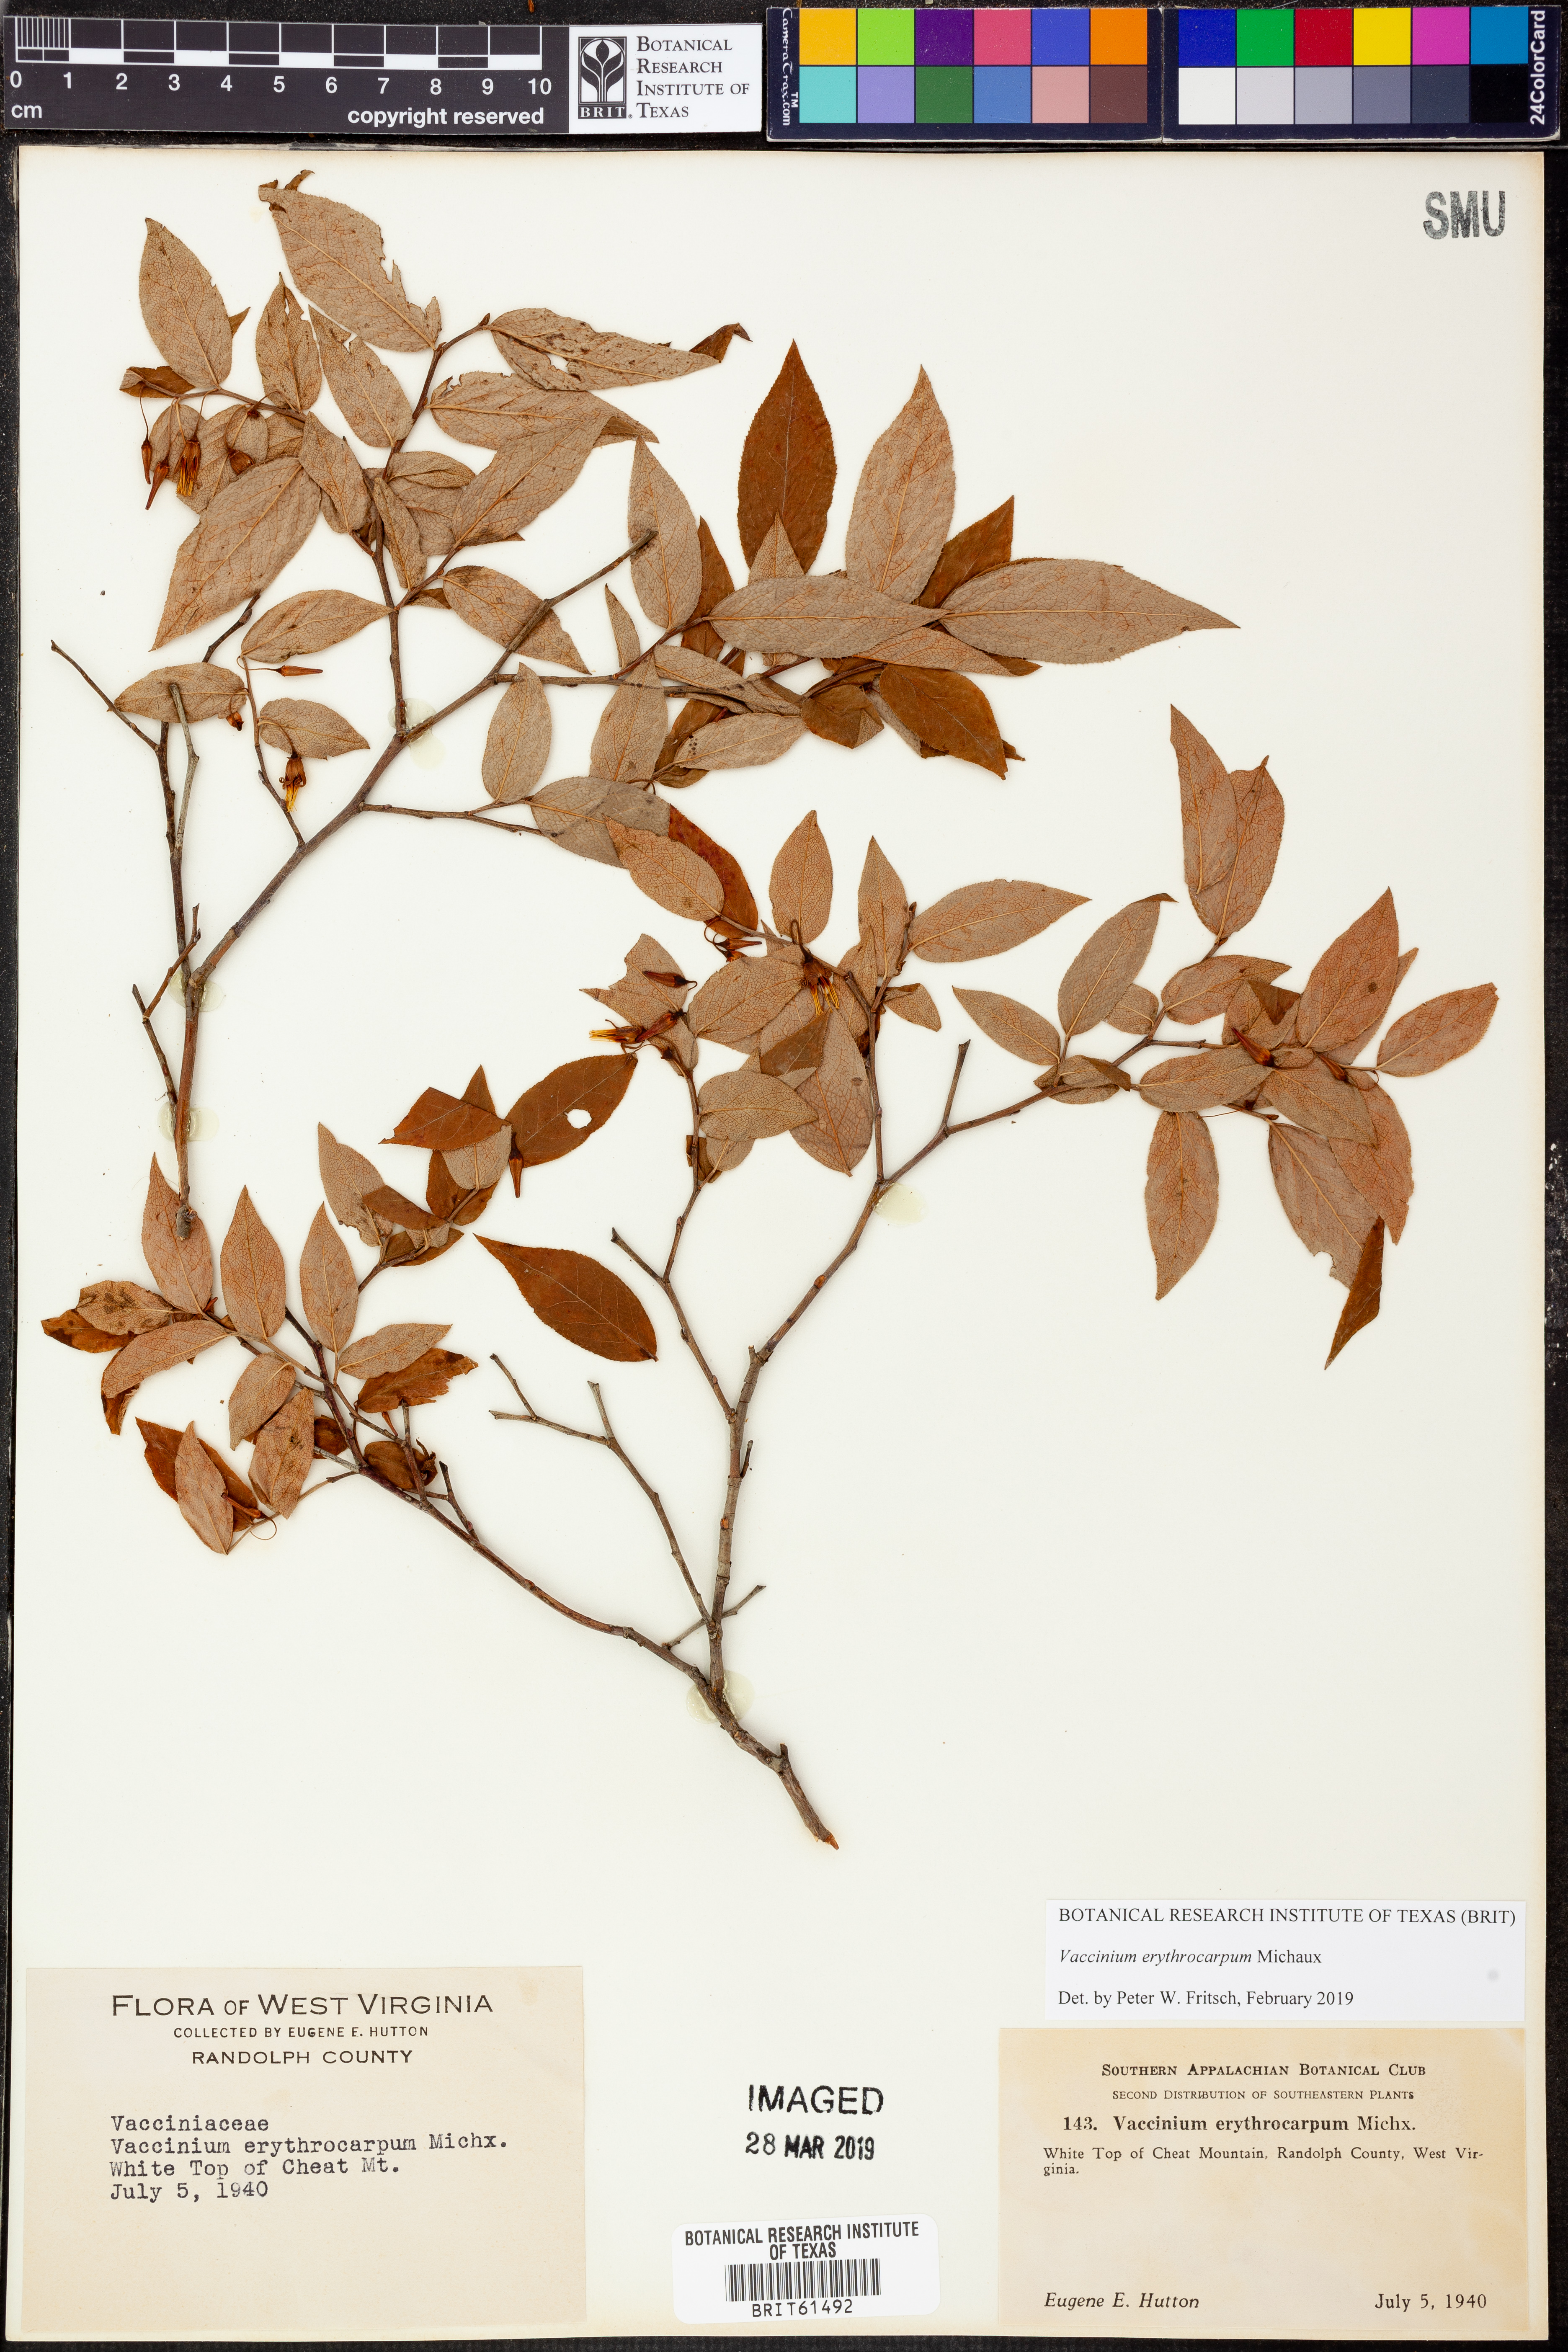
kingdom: Plantae
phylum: Tracheophyta
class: Magnoliopsida
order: Ericales
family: Ericaceae
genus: Vaccinium
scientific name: Vaccinium erythrocarpum
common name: Bearberry
